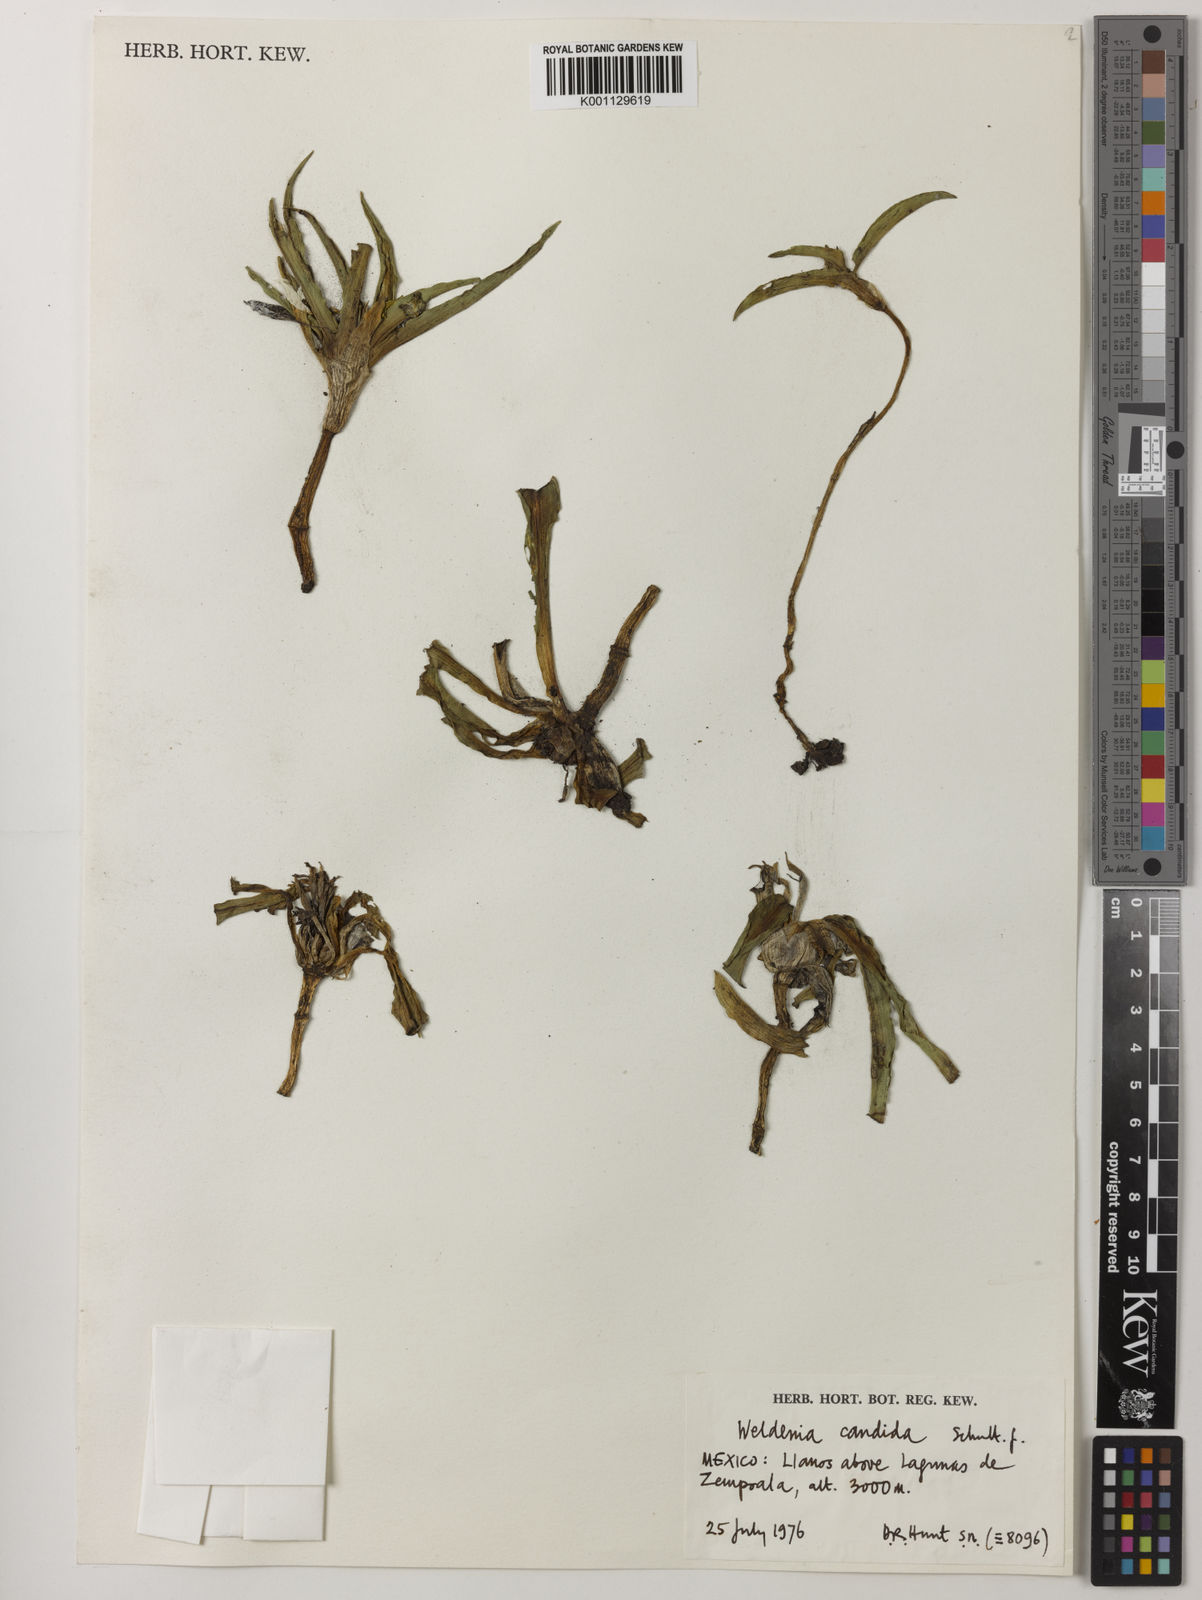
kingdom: Plantae
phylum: Tracheophyta
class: Liliopsida
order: Commelinales
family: Commelinaceae
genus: Weldenia
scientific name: Weldenia candida
